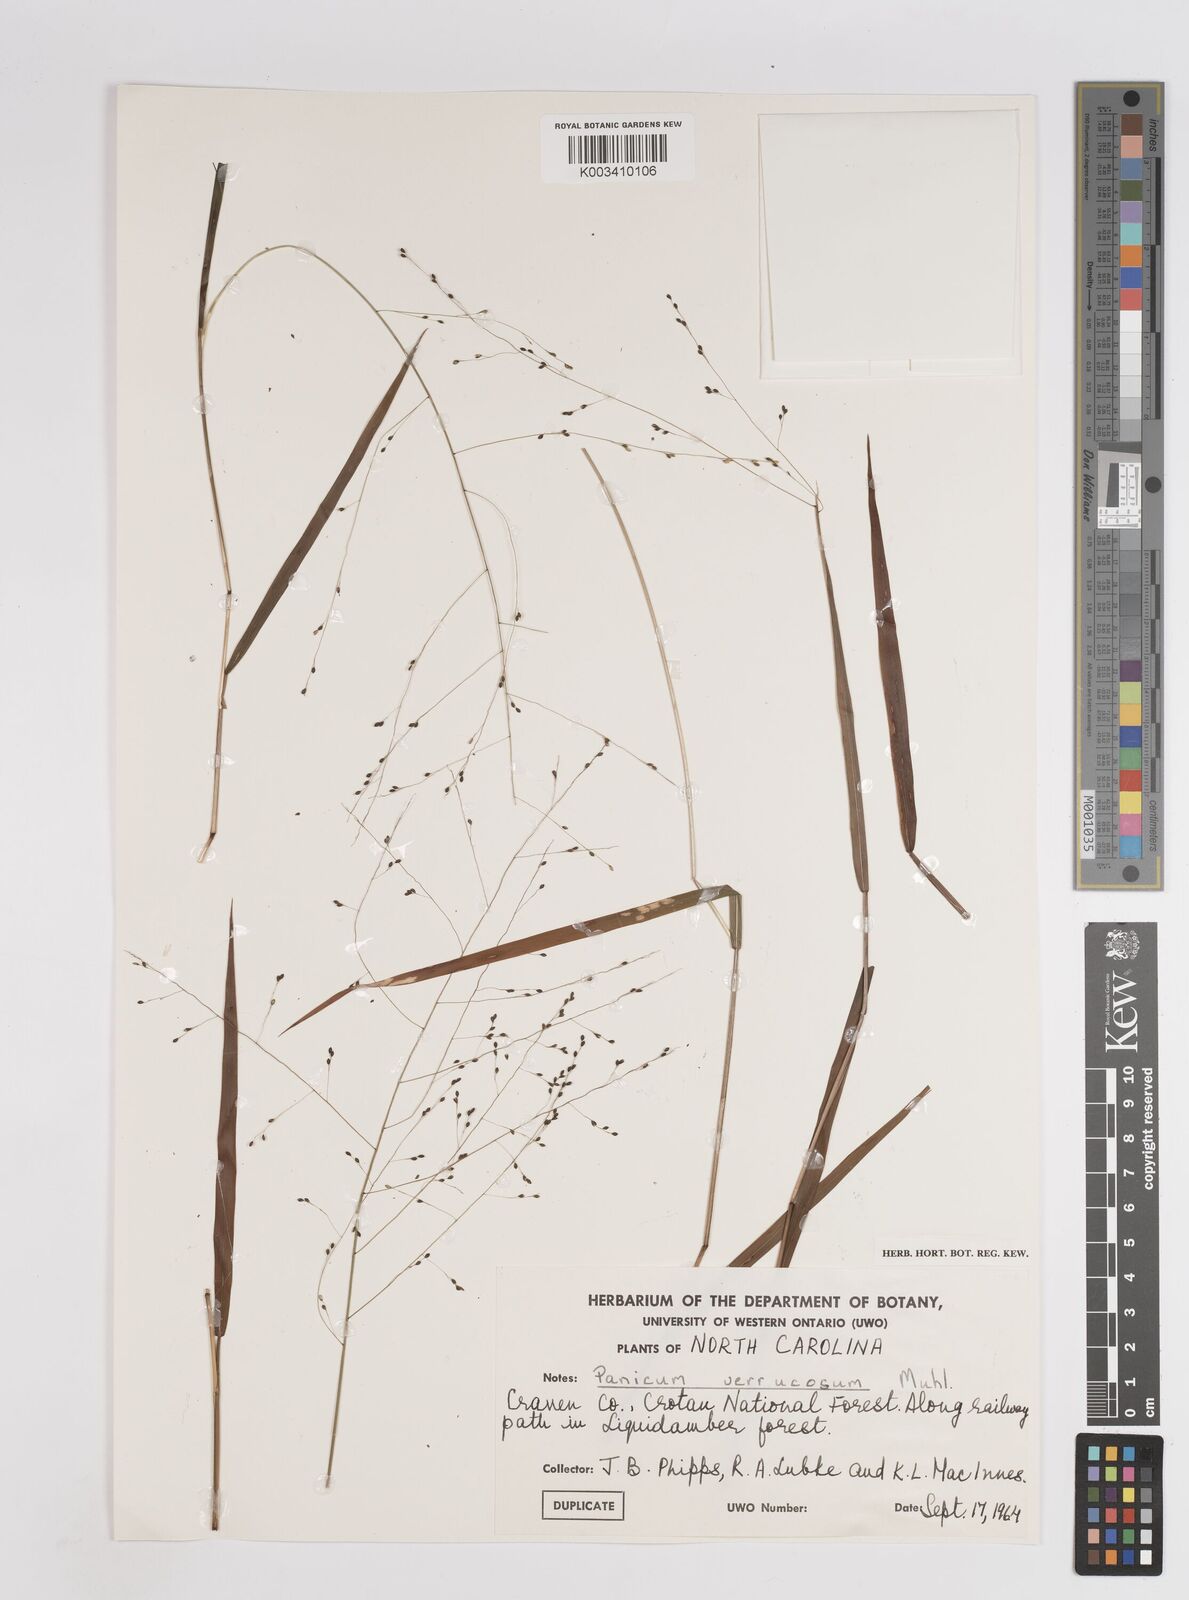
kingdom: Plantae
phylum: Tracheophyta
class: Liliopsida
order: Poales
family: Poaceae
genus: Kellochloa
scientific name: Kellochloa verrucosa
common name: Warty panic grass
